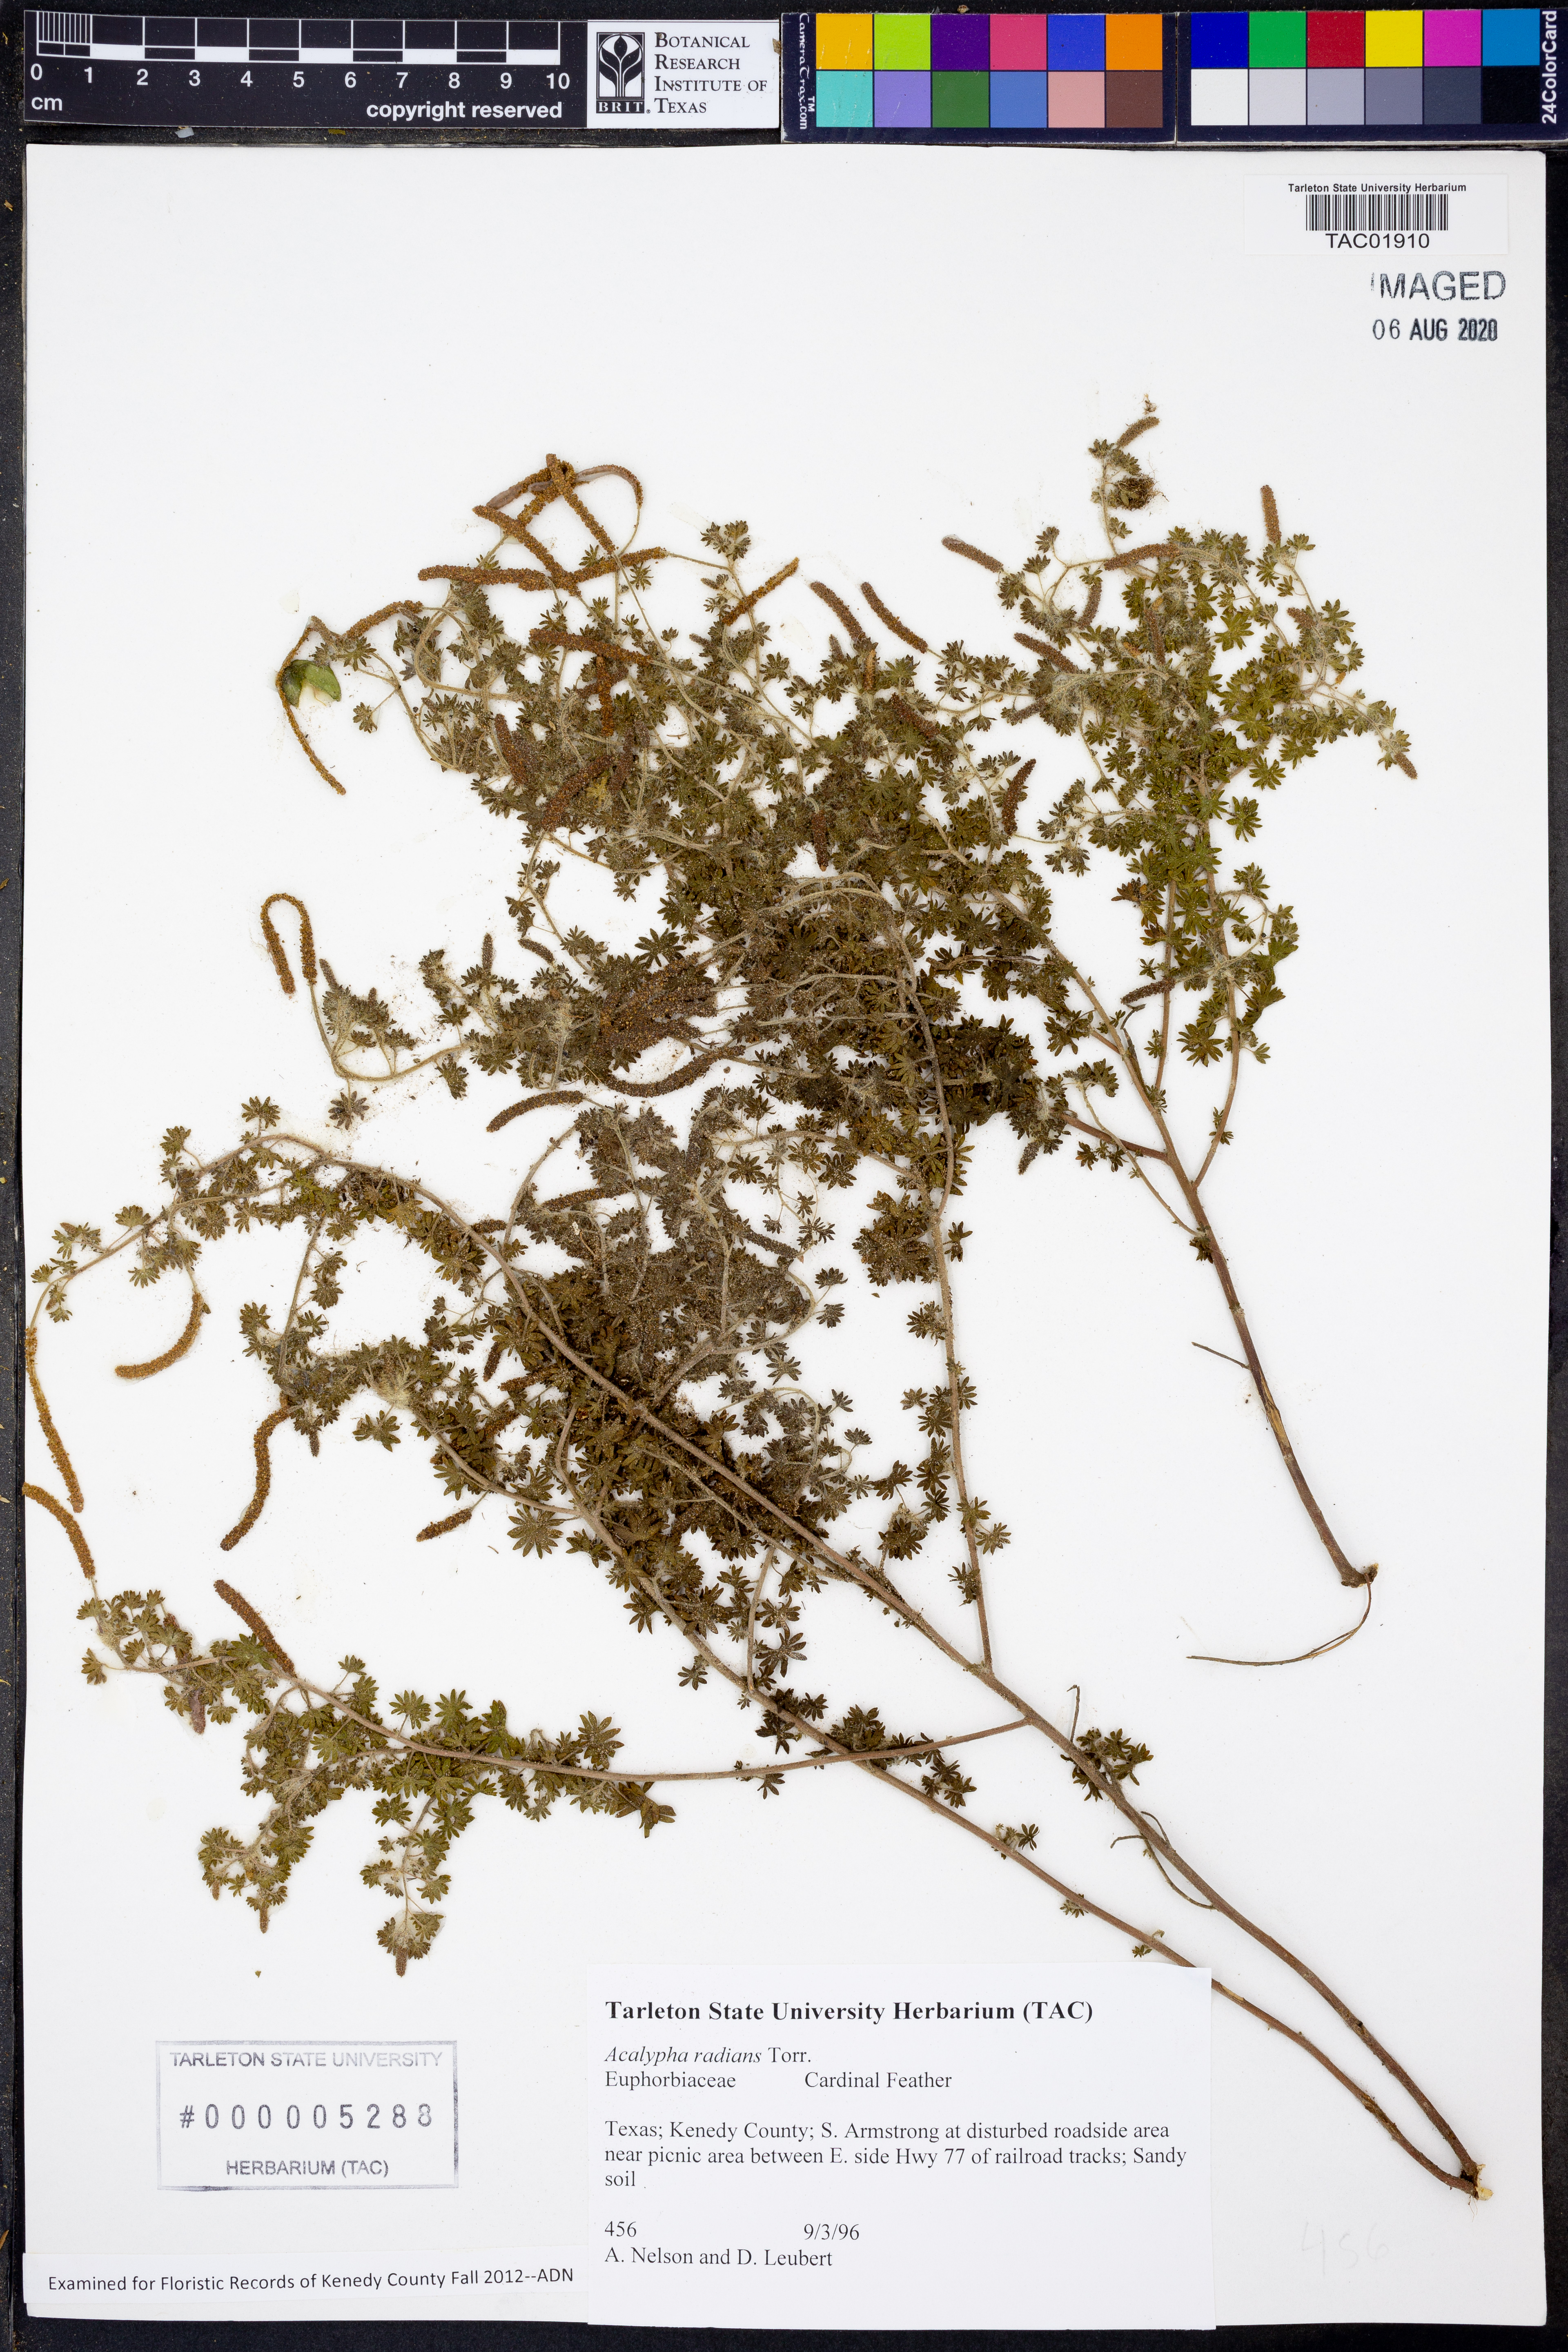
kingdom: Plantae
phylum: Tracheophyta
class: Magnoliopsida
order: Malpighiales
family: Euphorbiaceae
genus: Acalypha
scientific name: Acalypha radians
